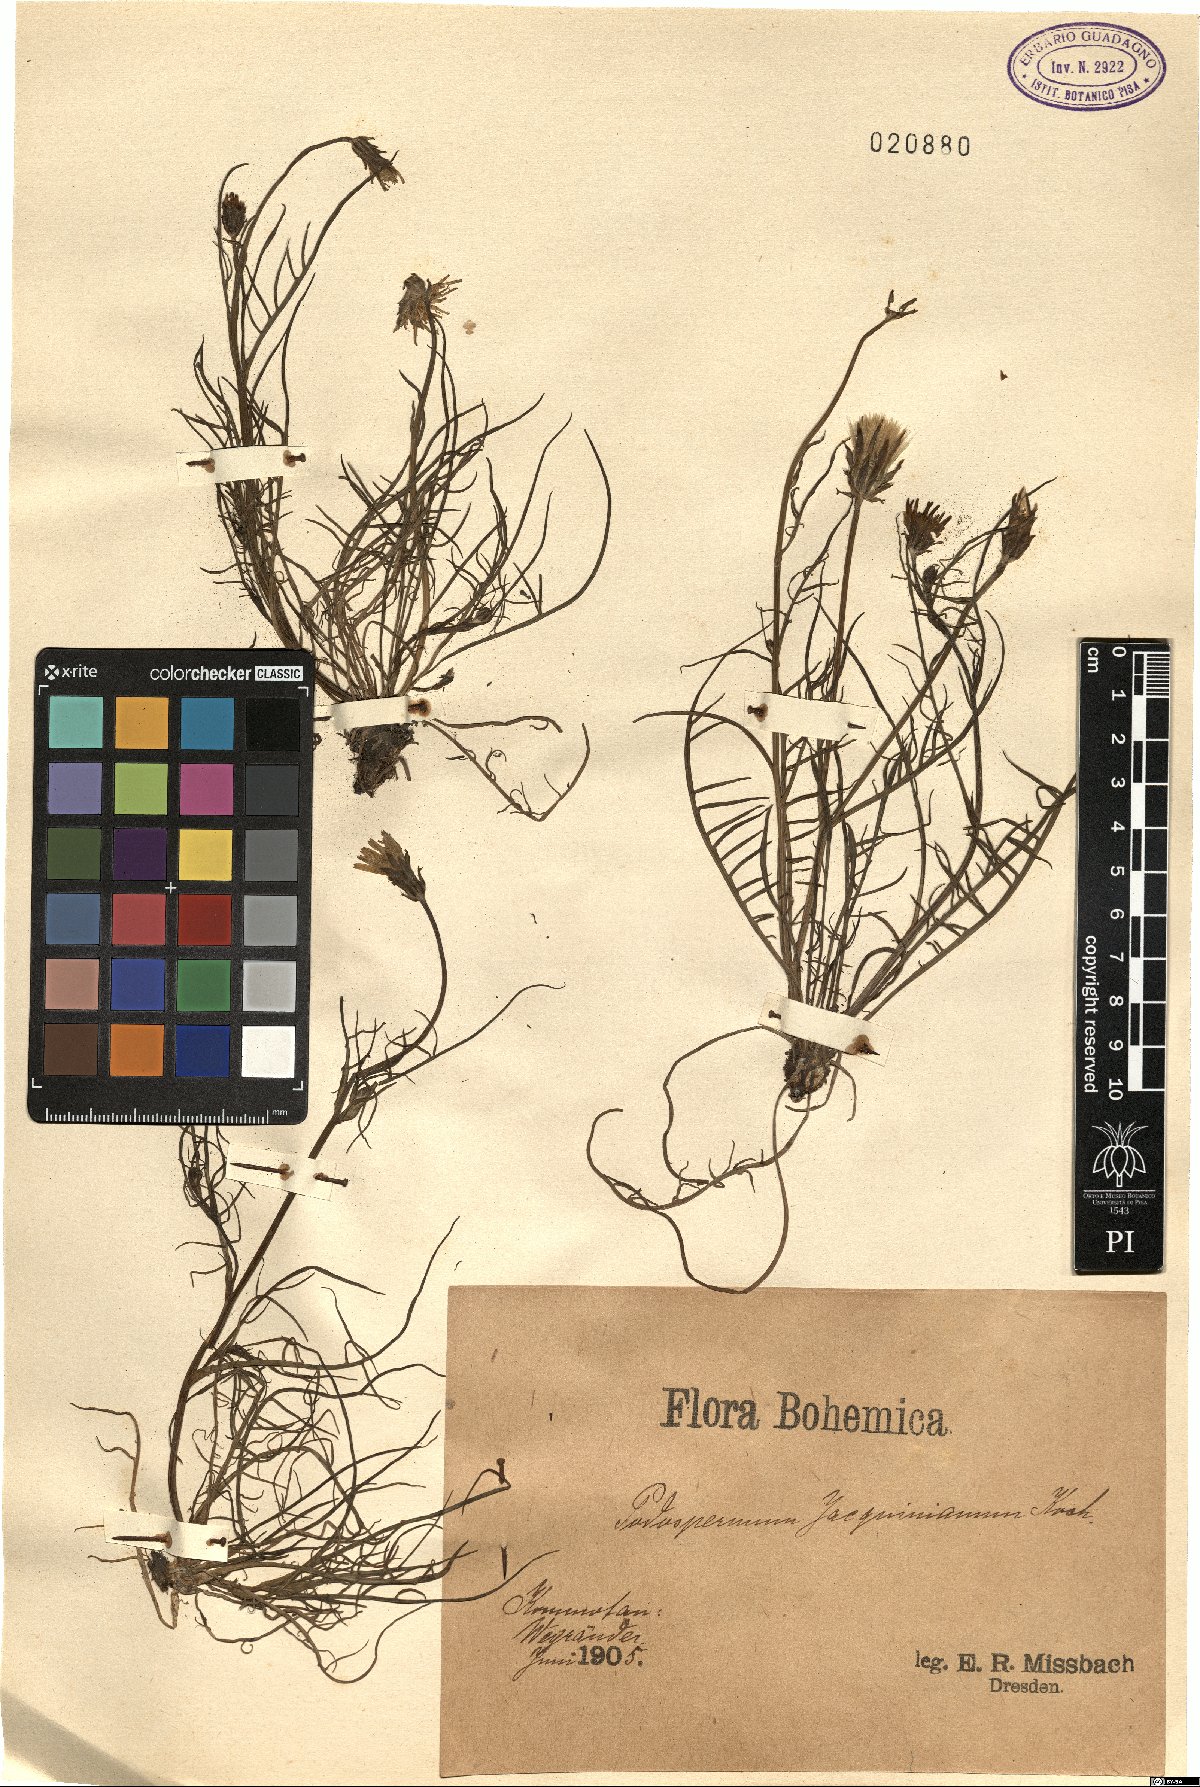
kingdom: Plantae
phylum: Tracheophyta
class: Magnoliopsida
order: Asterales
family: Asteraceae
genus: Scorzonera
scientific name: Scorzonera cana
